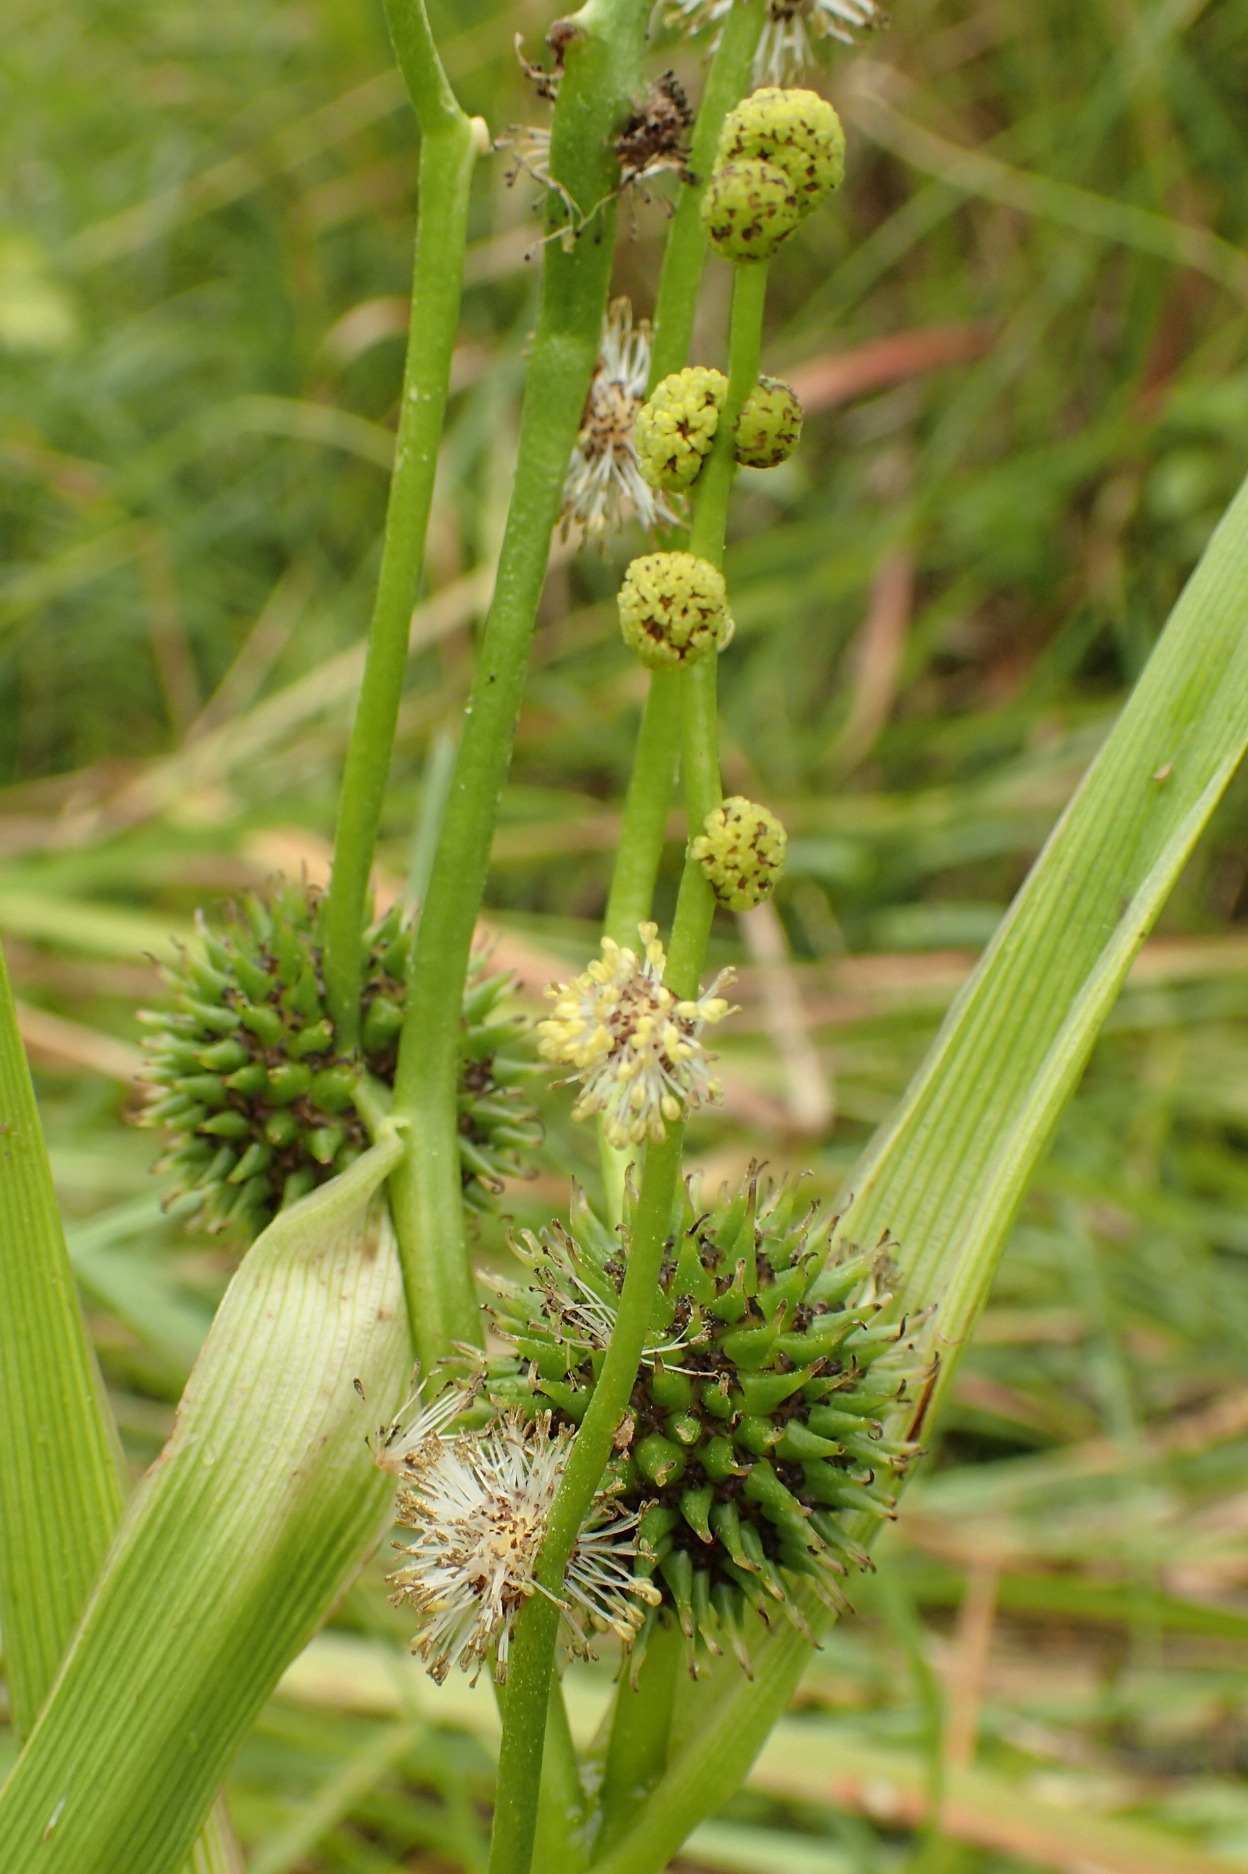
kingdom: Plantae
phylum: Tracheophyta
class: Liliopsida
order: Poales
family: Typhaceae
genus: Sparganium
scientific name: Sparganium erectum
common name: Grenet pindsvineknop
